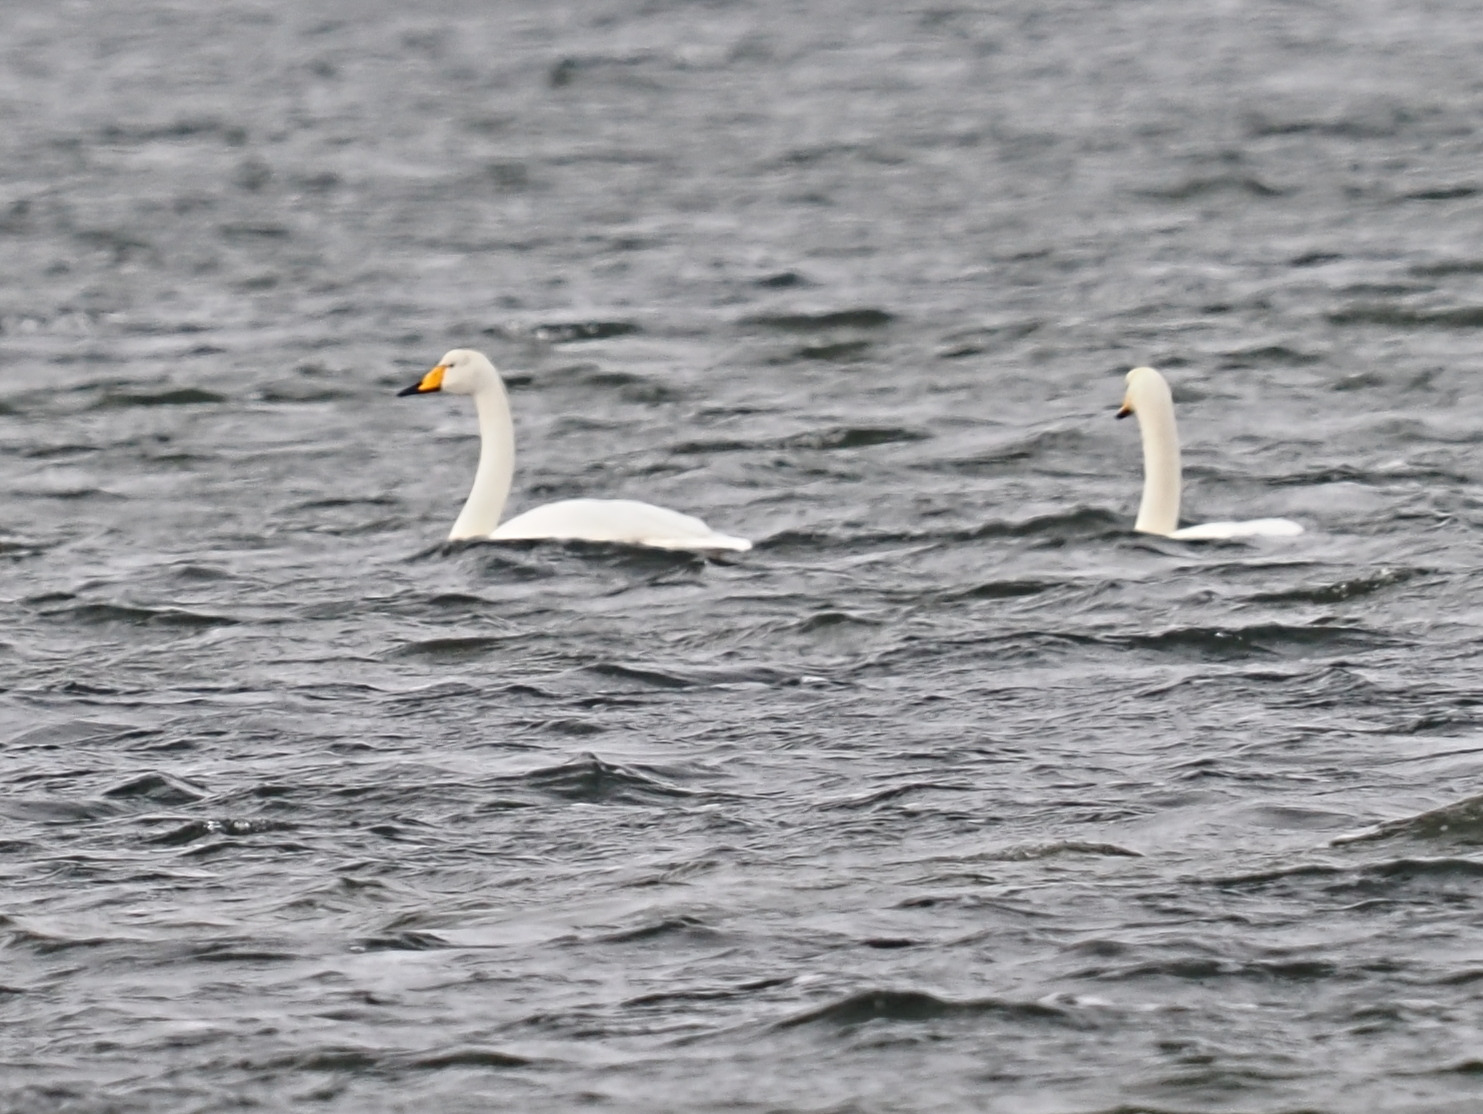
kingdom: Animalia
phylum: Chordata
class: Aves
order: Anseriformes
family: Anatidae
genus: Cygnus
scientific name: Cygnus cygnus
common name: Sangsvane
